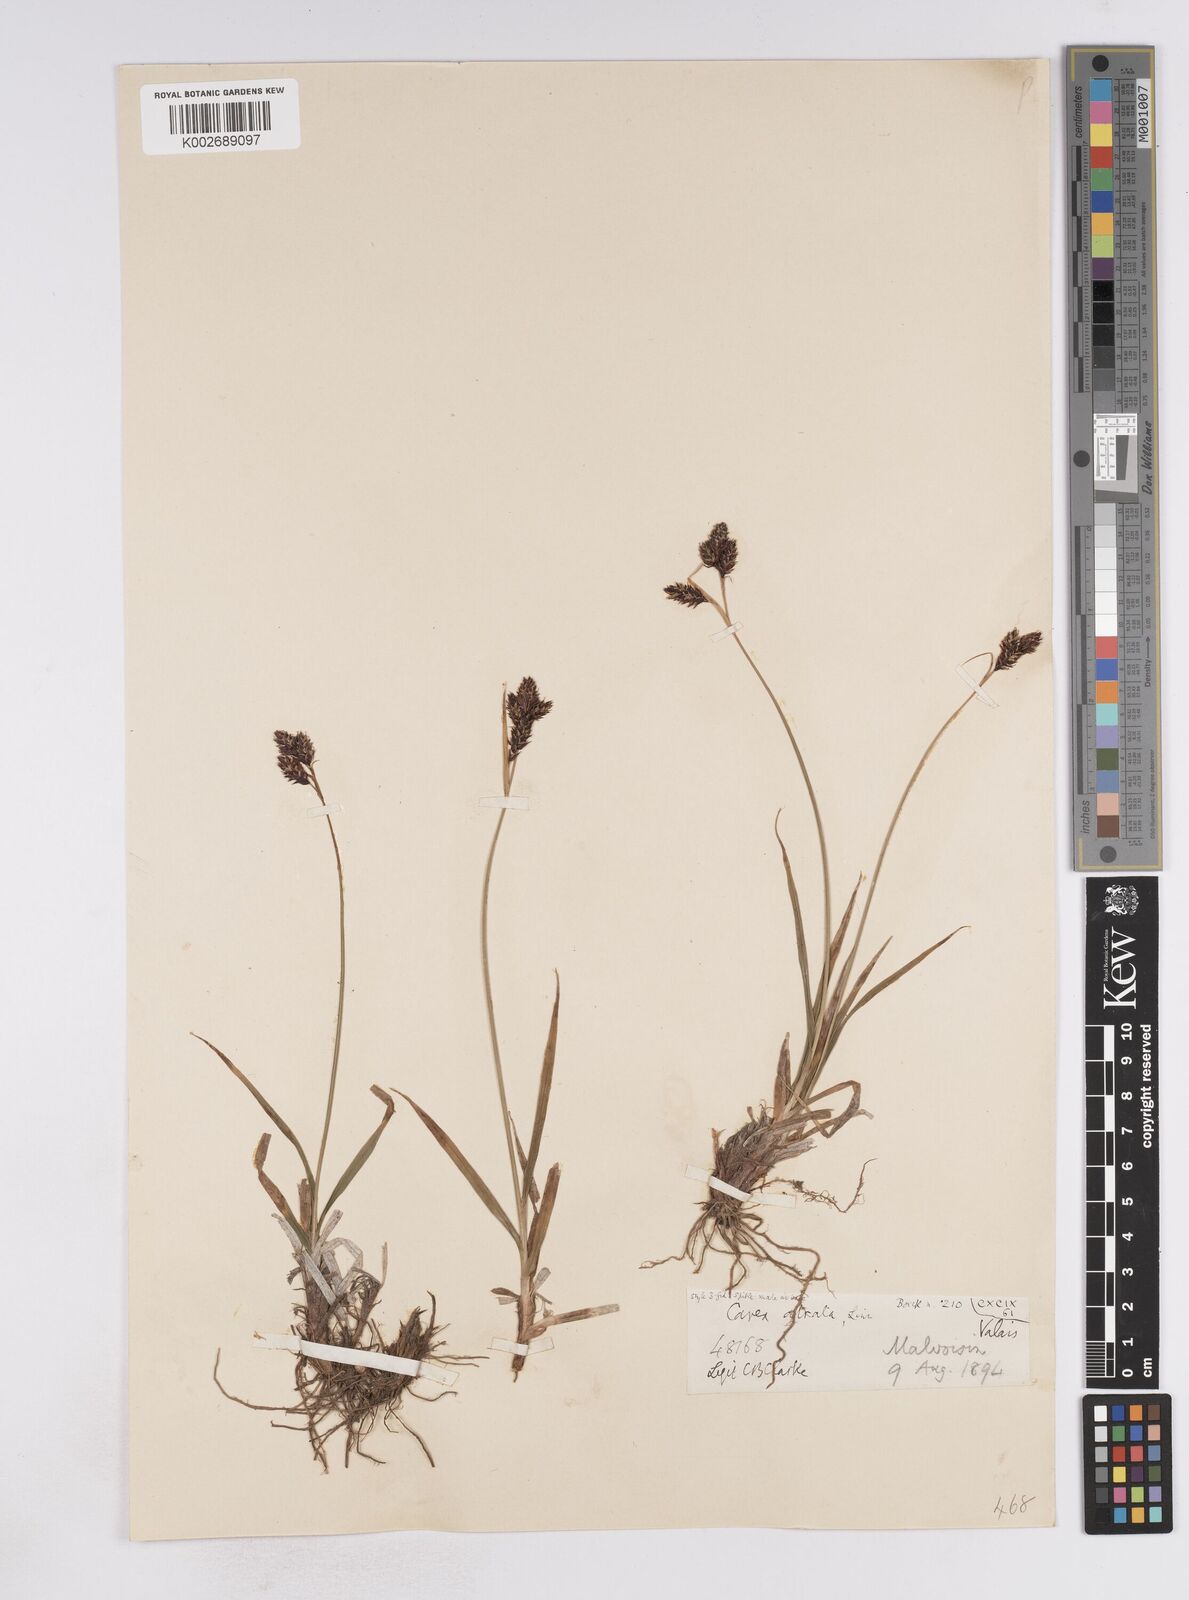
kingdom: Plantae
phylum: Tracheophyta
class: Liliopsida
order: Poales
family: Cyperaceae
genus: Carex
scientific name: Carex atrata
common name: Black alpine sedge
